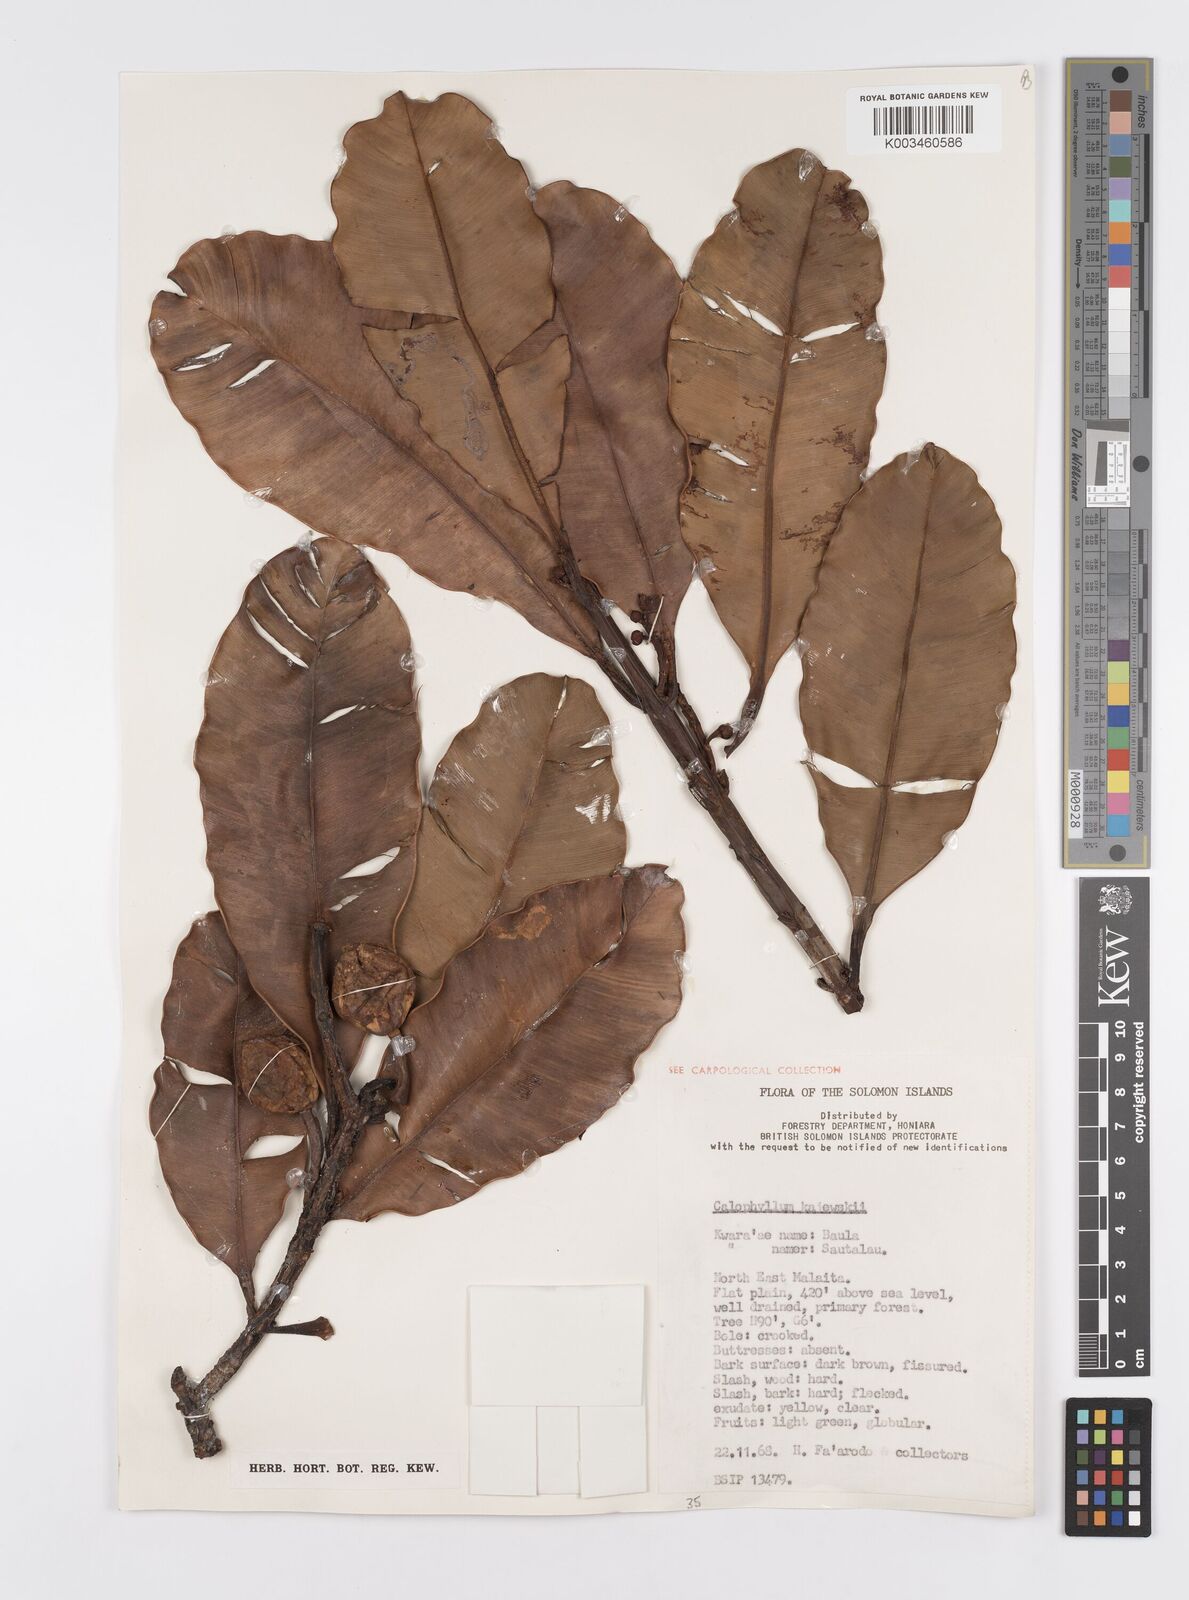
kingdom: Plantae
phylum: Tracheophyta
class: Magnoliopsida
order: Malpighiales
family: Calophyllaceae
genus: Calophyllum
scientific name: Calophyllum peekelii
